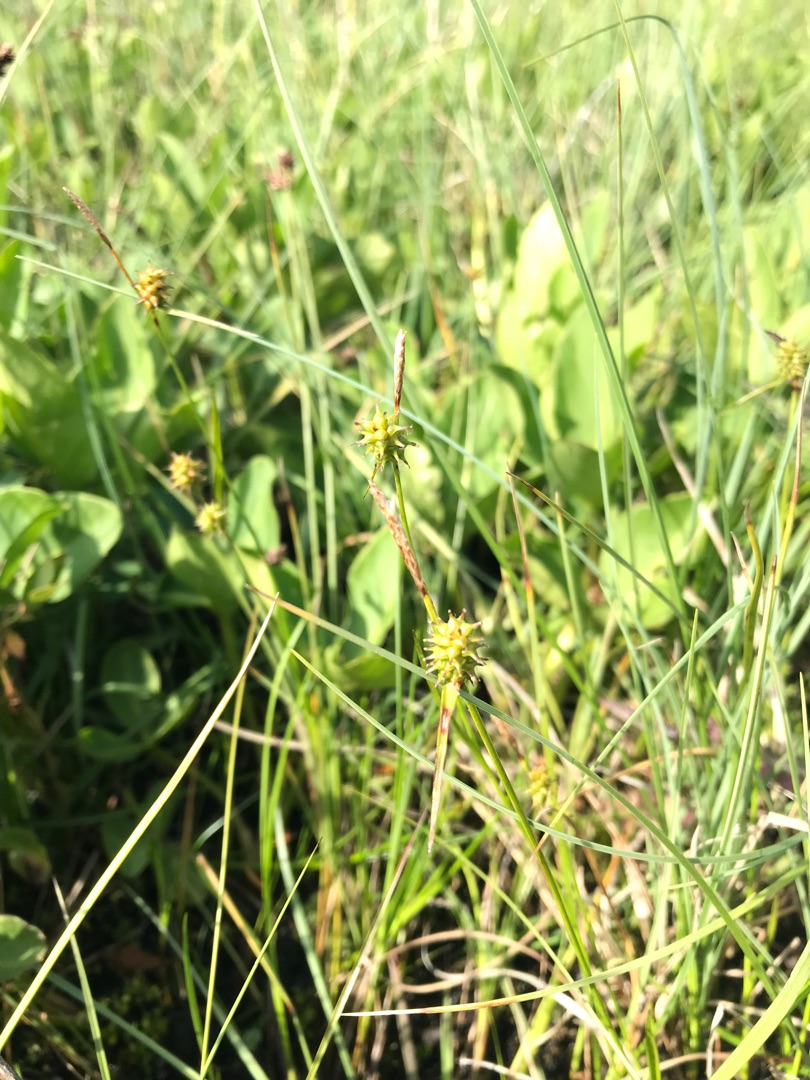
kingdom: Plantae
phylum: Tracheophyta
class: Liliopsida
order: Poales
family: Cyperaceae
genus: Carex
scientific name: Carex lepidocarpa
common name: Krognæb-star
